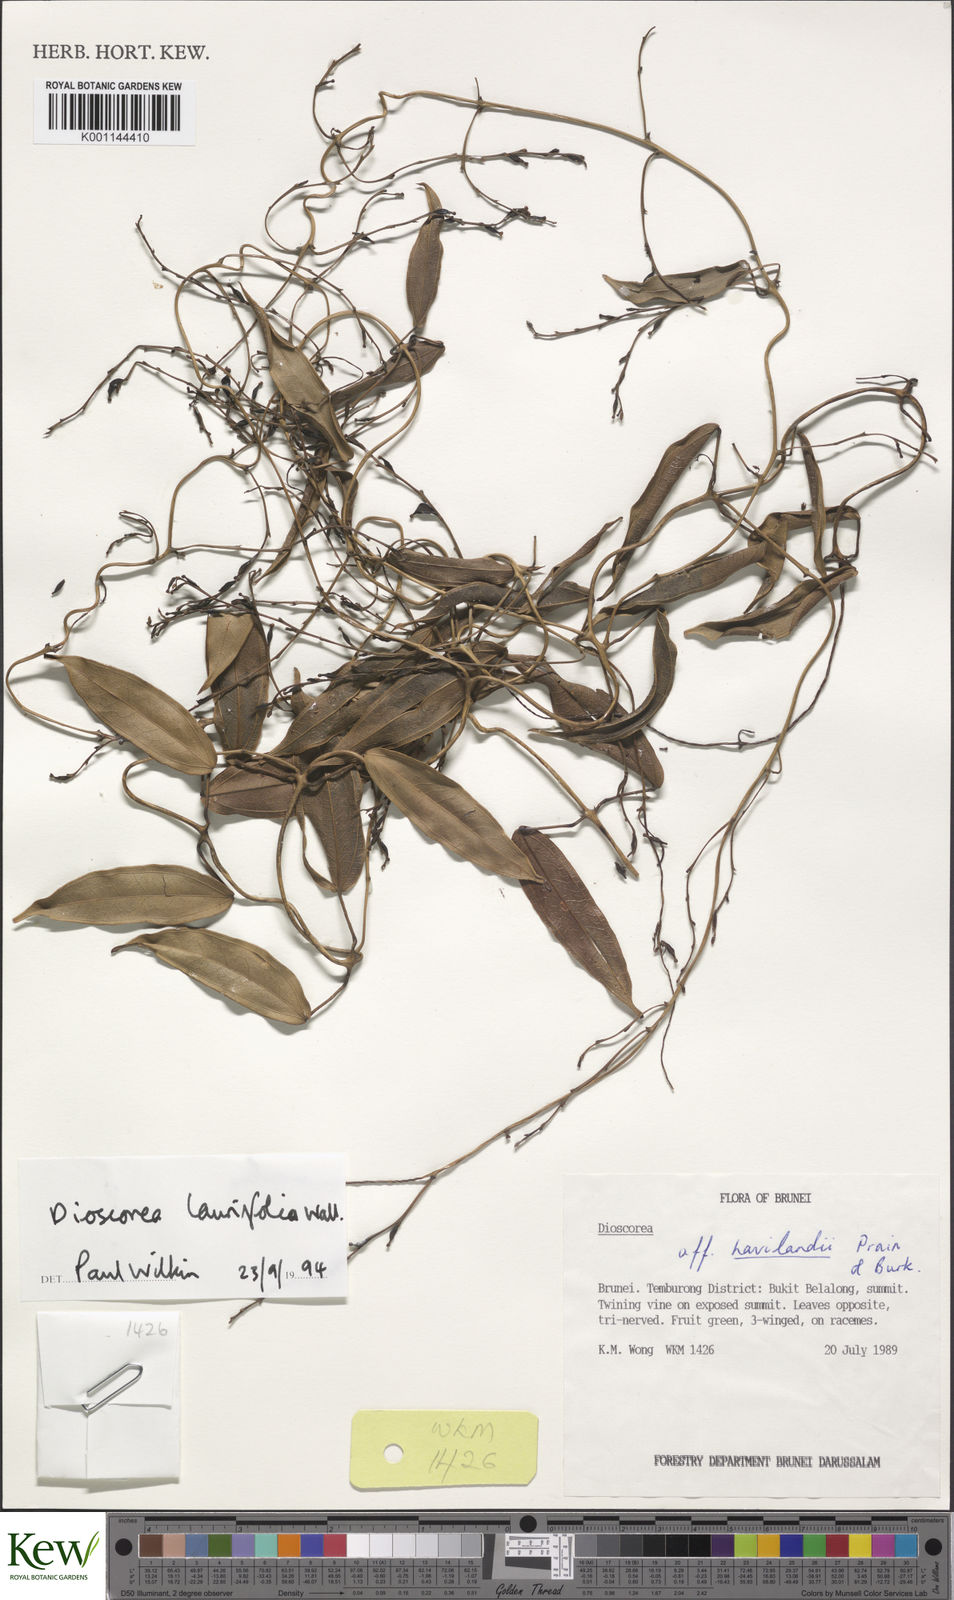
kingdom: Plantae
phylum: Tracheophyta
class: Liliopsida
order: Dioscoreales
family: Dioscoreaceae
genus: Dioscorea
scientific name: Dioscorea laurifolia
